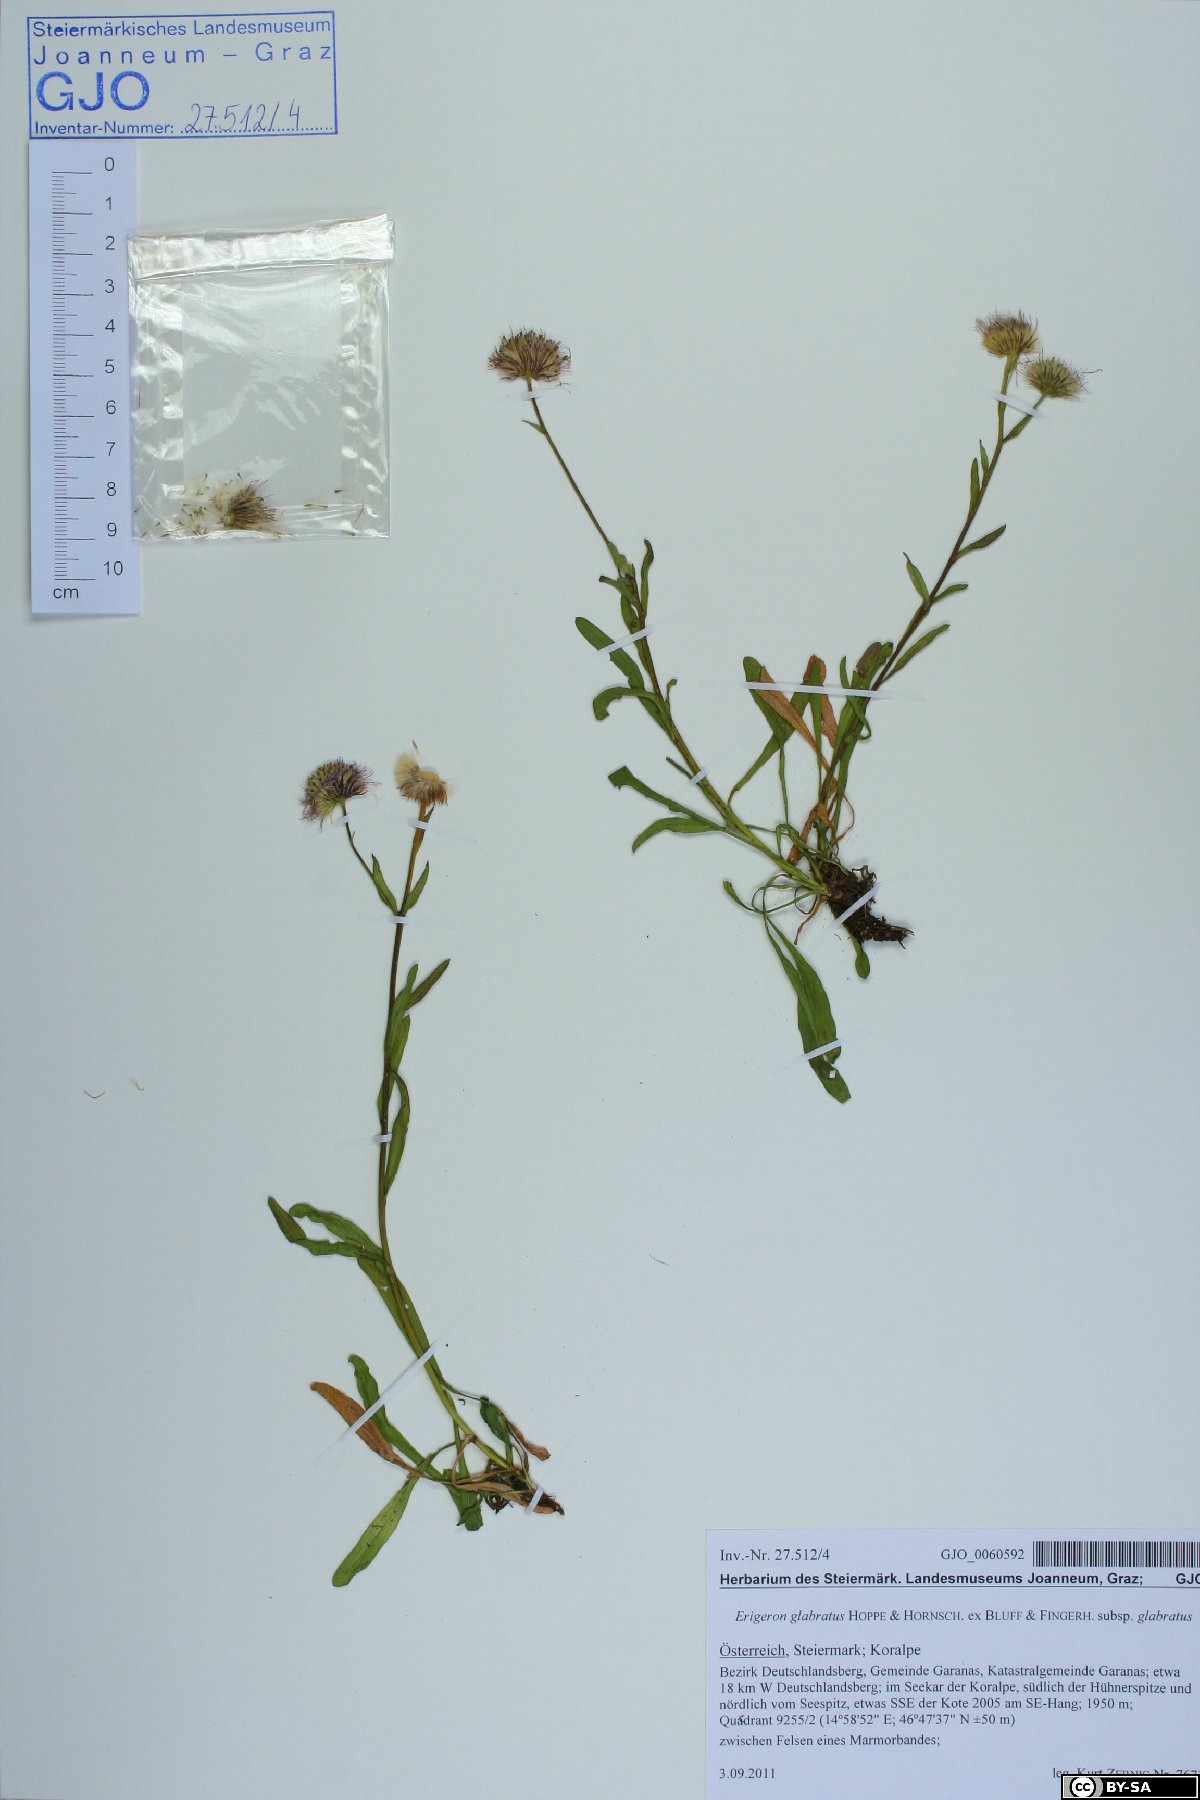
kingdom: Plantae
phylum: Tracheophyta
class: Magnoliopsida
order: Asterales
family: Asteraceae
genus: Erigeron
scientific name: Erigeron glabratus
